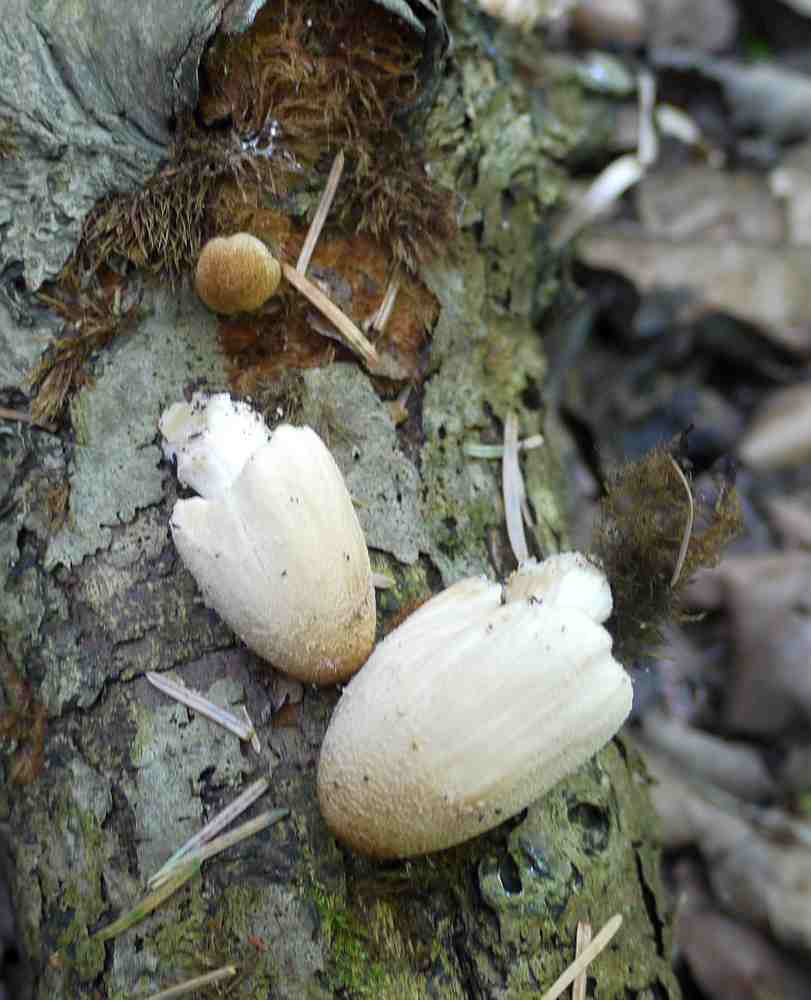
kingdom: Fungi
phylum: Basidiomycota
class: Agaricomycetes
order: Agaricales
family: Psathyrellaceae
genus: Coprinellus
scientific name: Coprinellus
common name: blækhat
